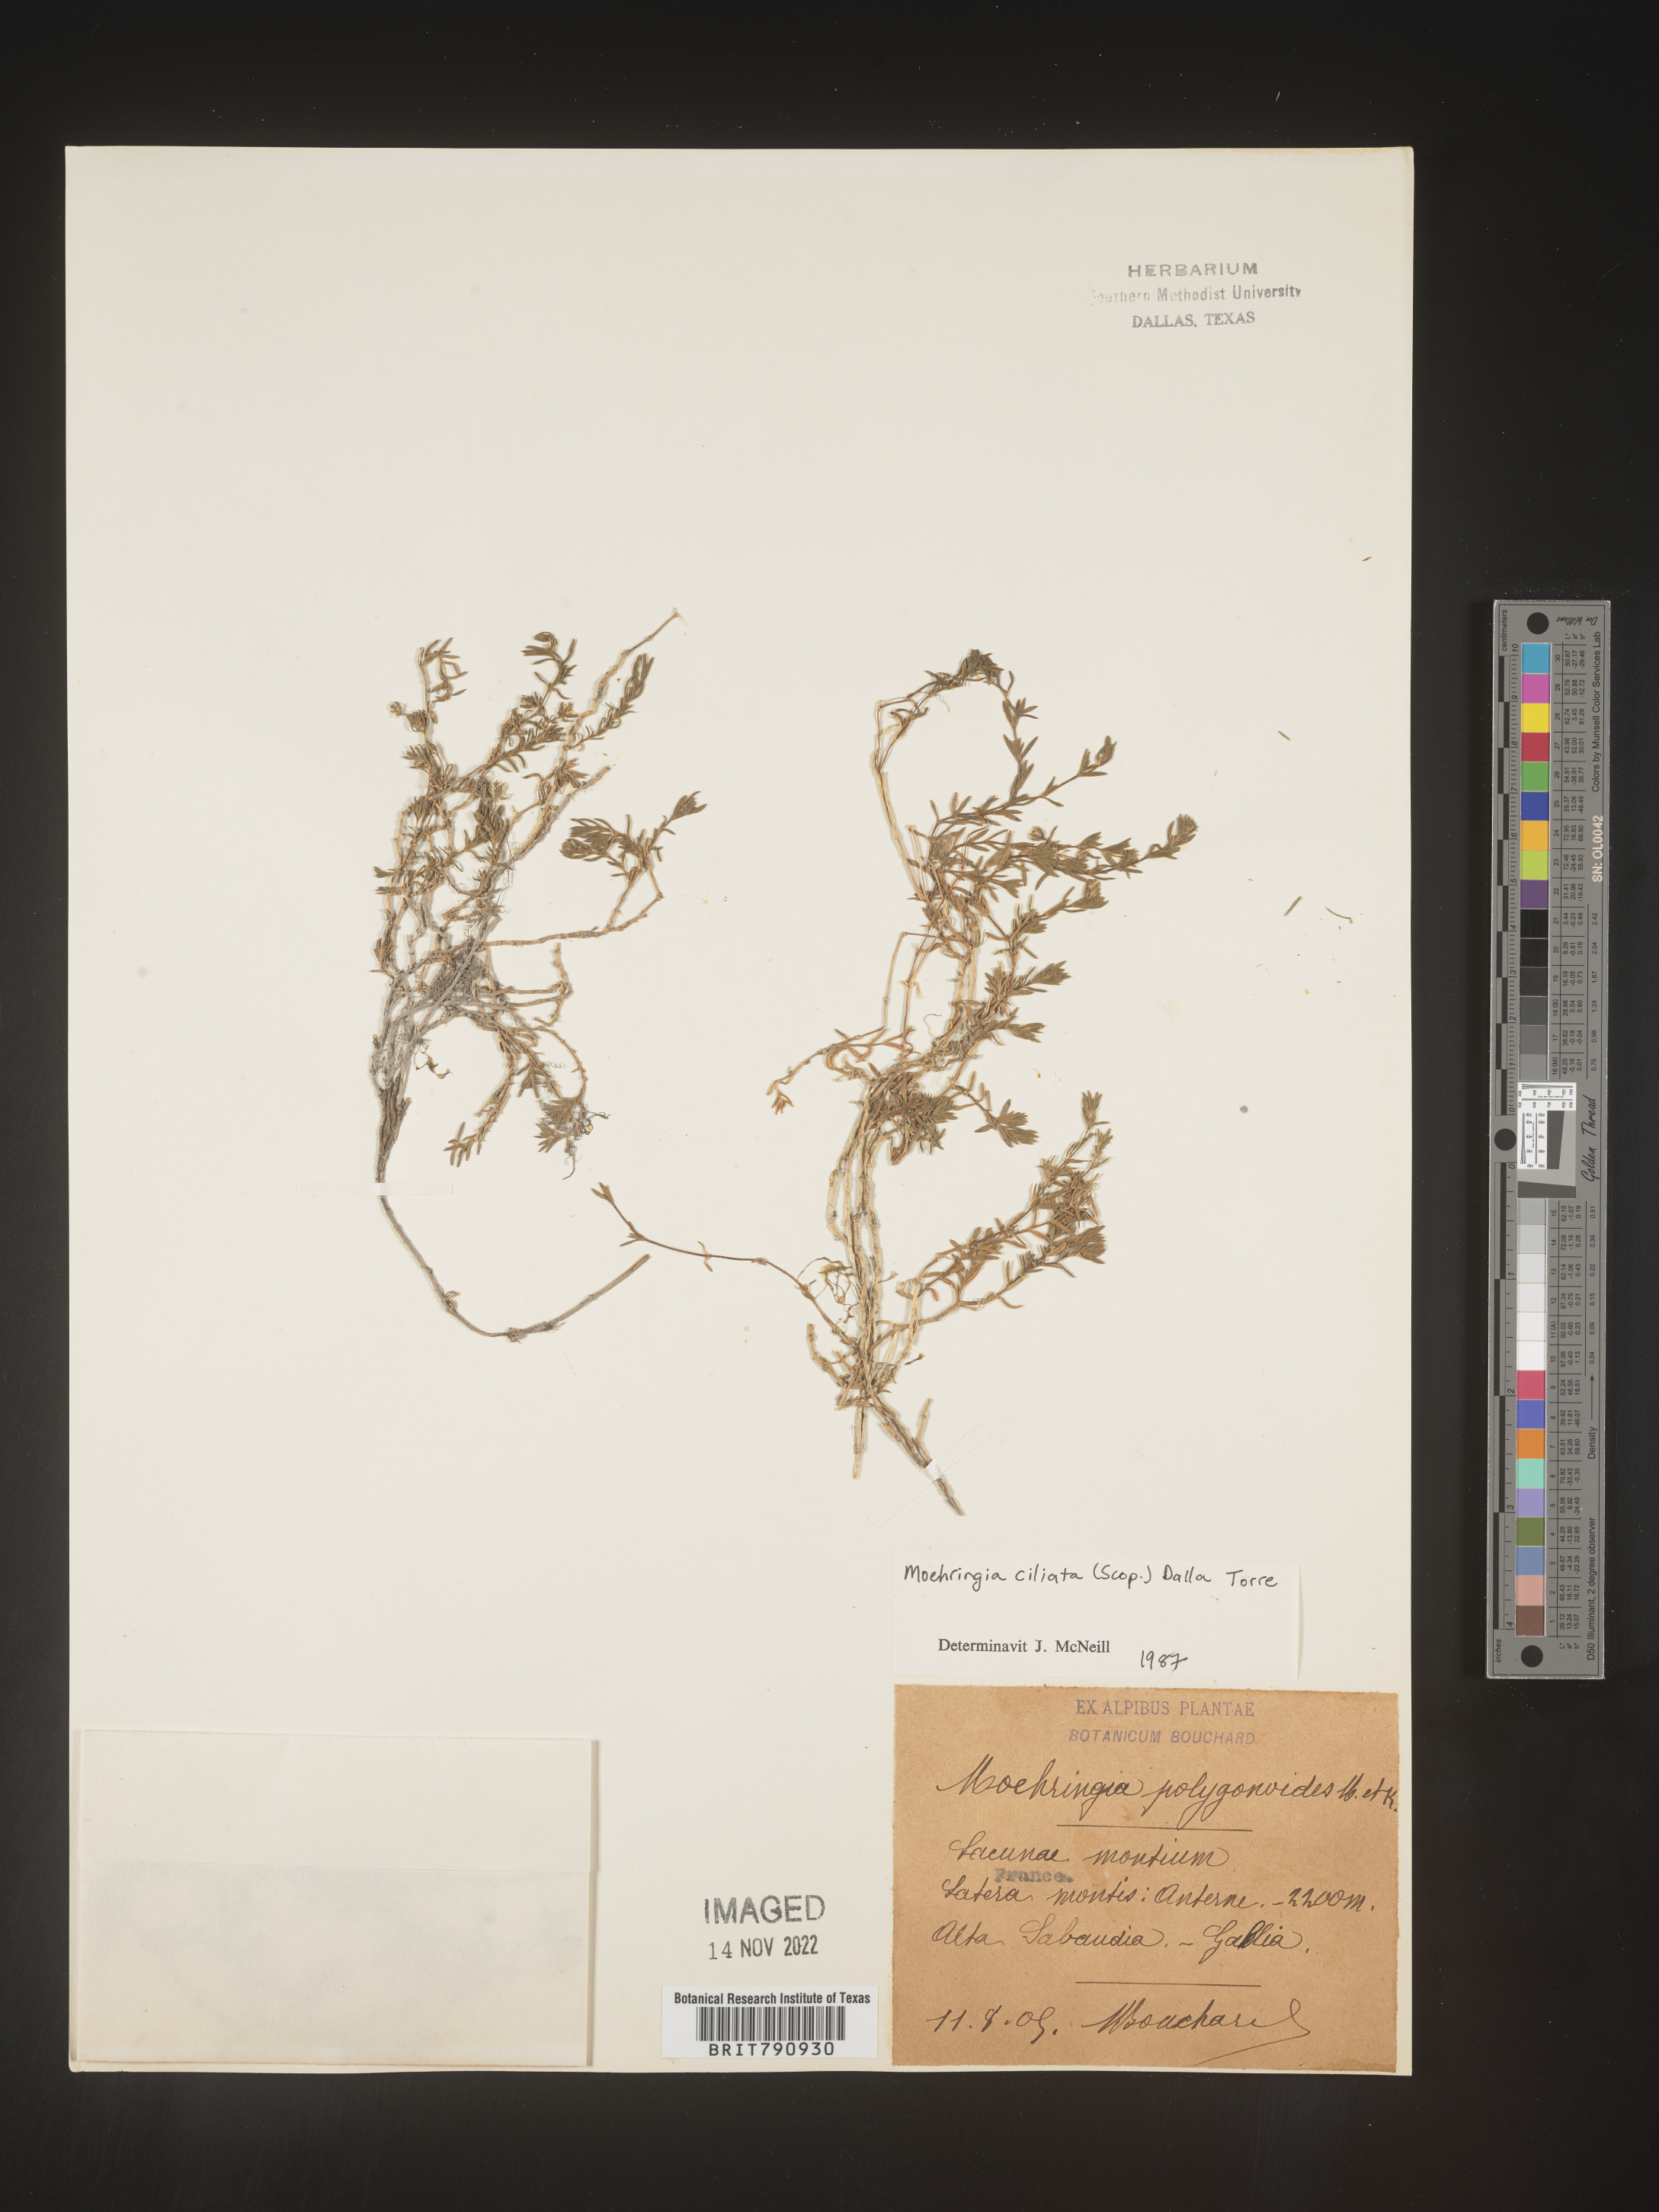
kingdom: Plantae
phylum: Tracheophyta
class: Magnoliopsida
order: Caryophyllales
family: Caryophyllaceae
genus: Moehringia
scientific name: Moehringia
